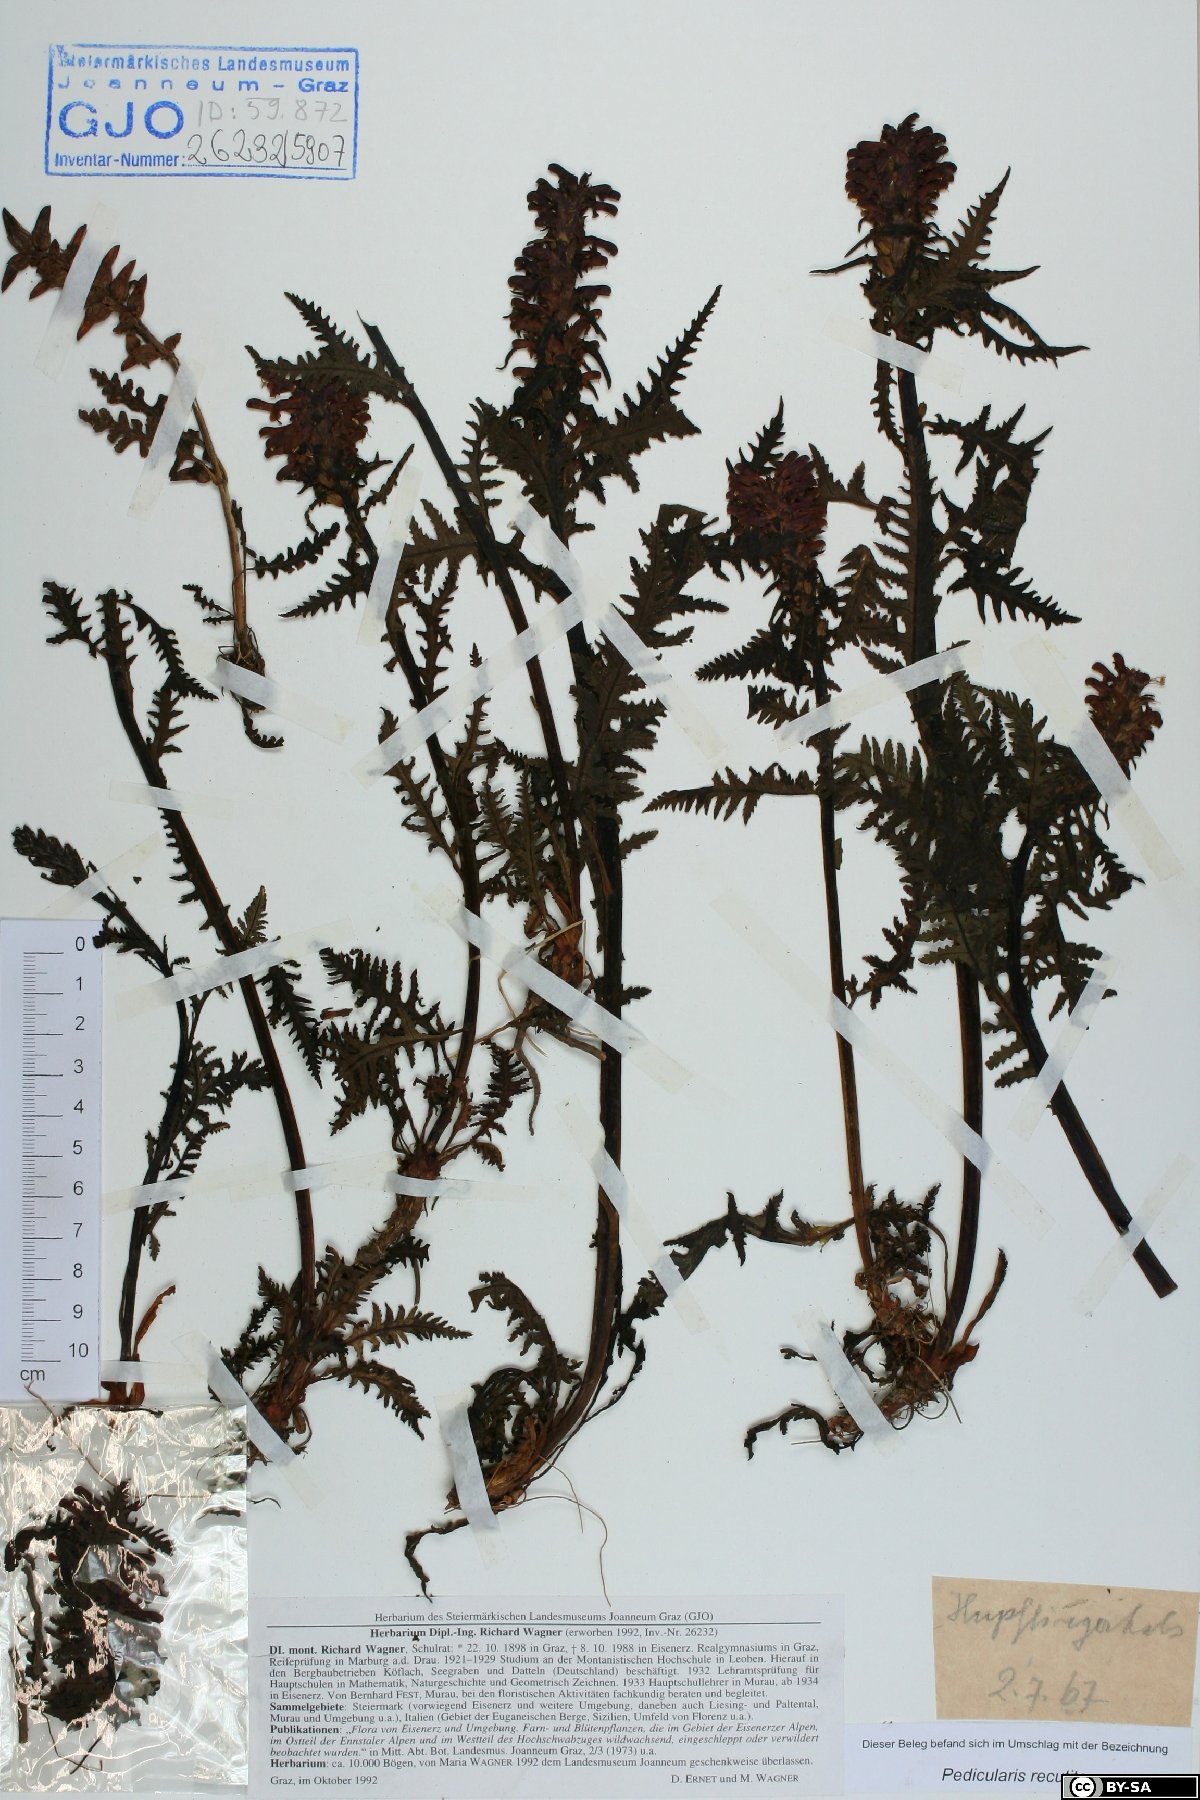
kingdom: Plantae
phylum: Tracheophyta
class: Magnoliopsida
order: Lamiales
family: Orobanchaceae
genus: Pedicularis
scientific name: Pedicularis recutita
